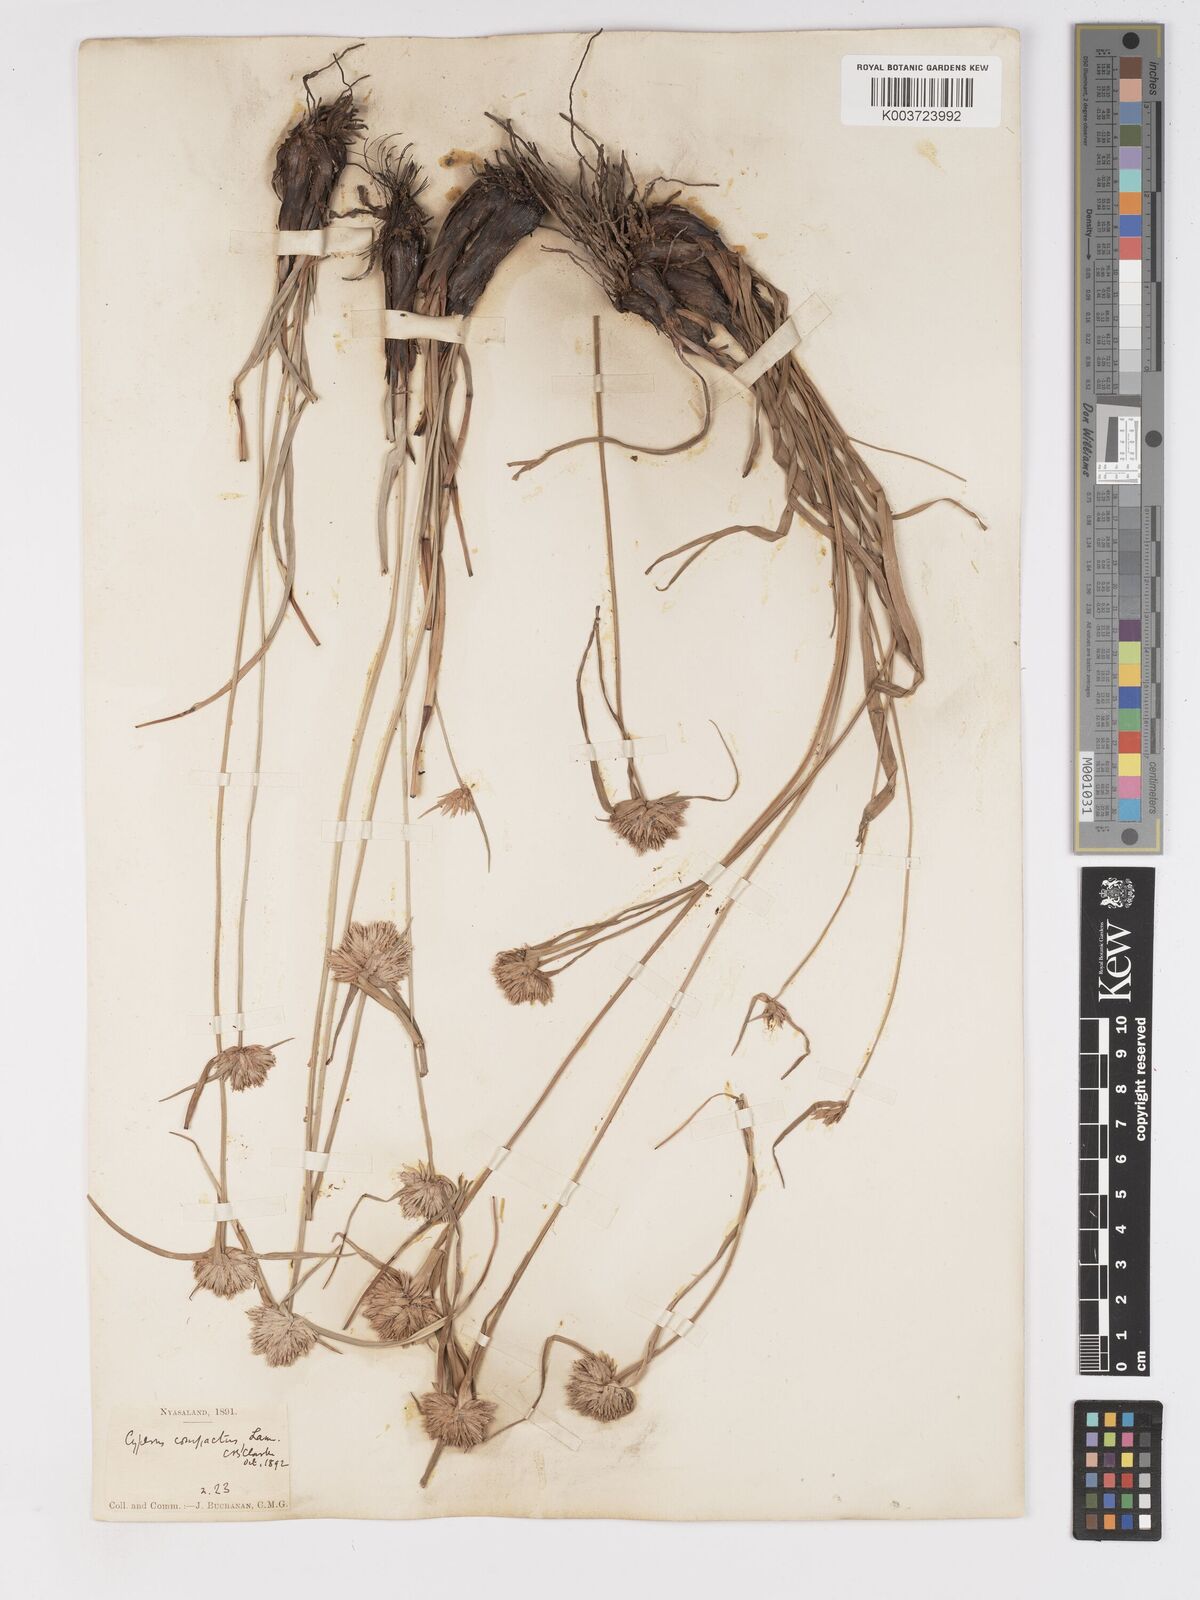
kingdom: Plantae
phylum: Tracheophyta
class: Liliopsida
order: Poales
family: Cyperaceae
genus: Cyperus
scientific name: Cyperus niveus
